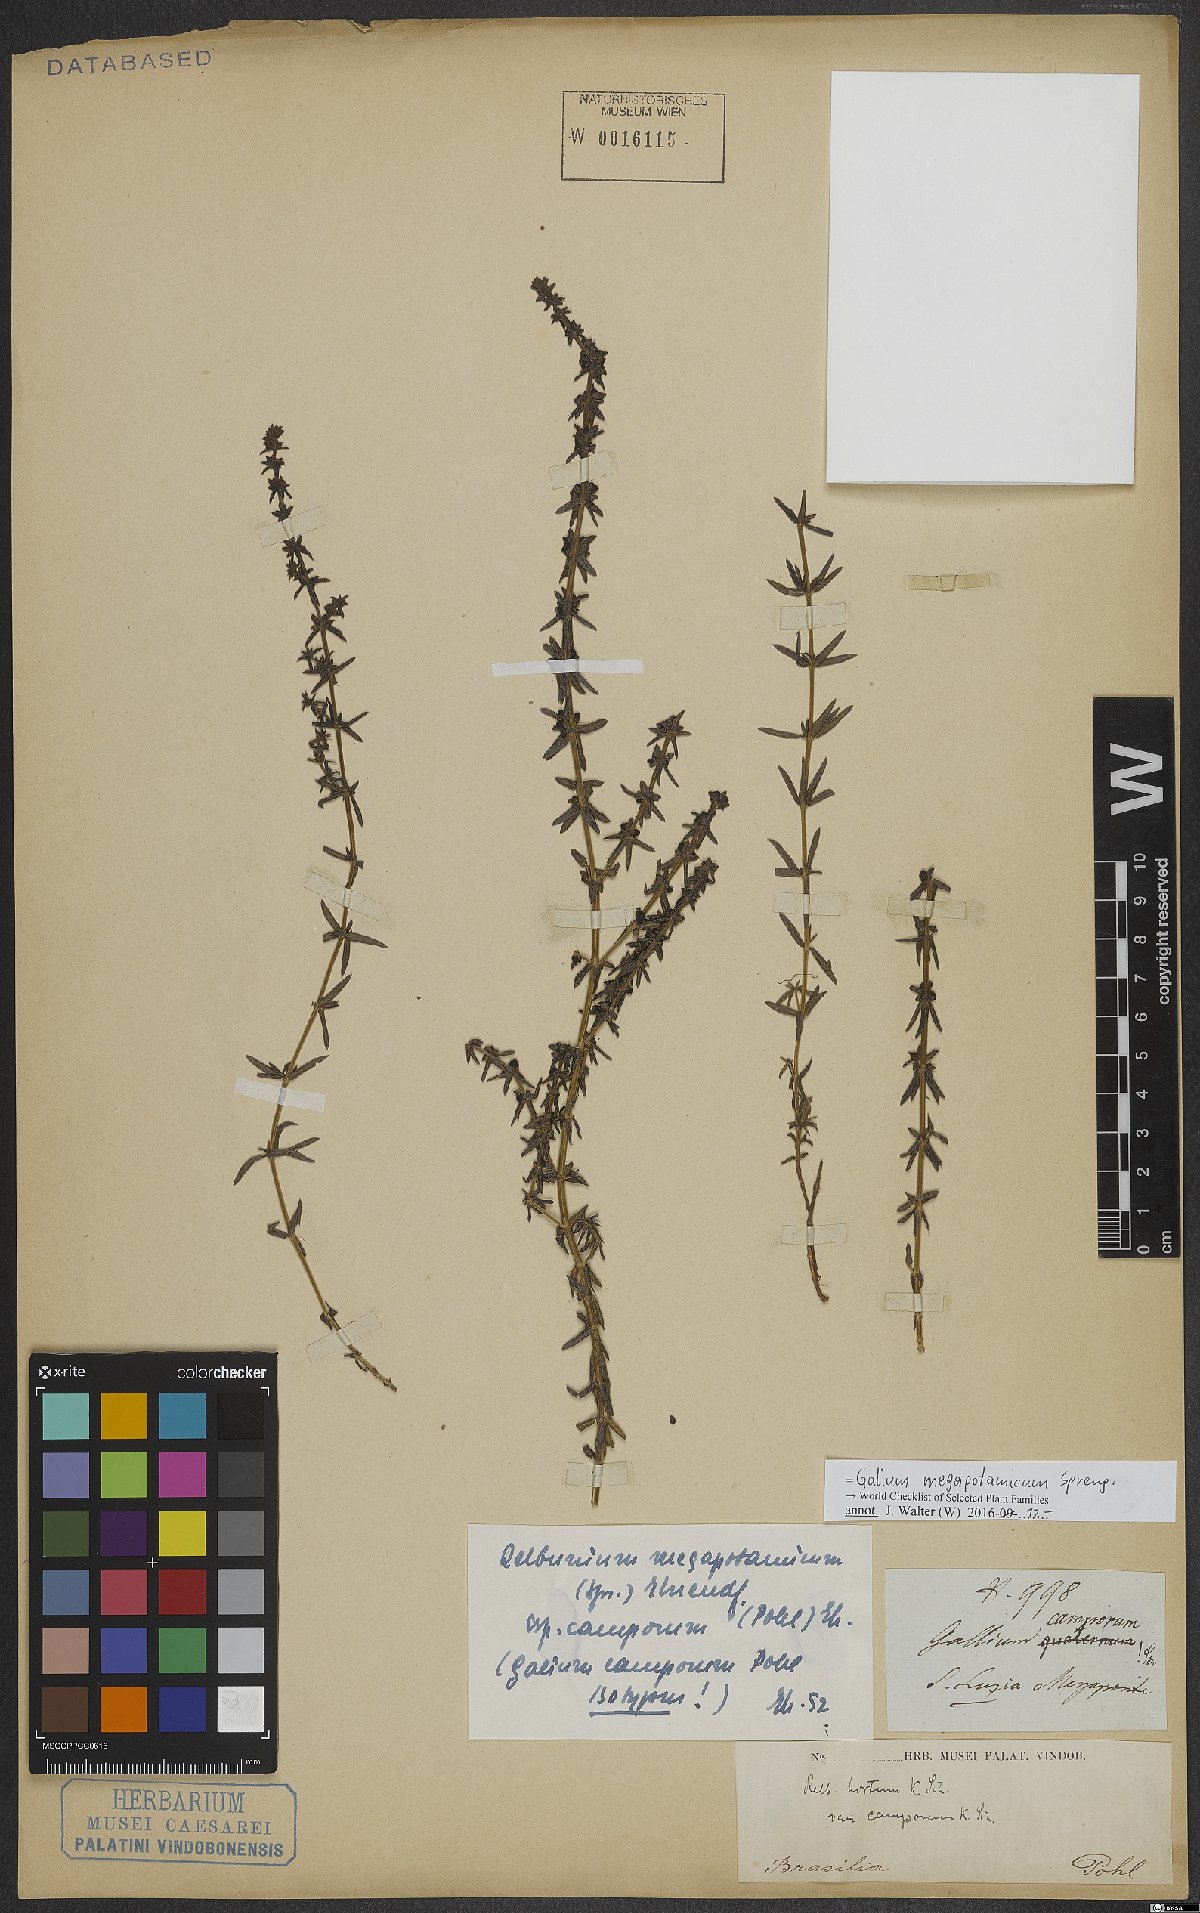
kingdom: Plantae
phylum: Tracheophyta
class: Magnoliopsida
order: Gentianales
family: Rubiaceae
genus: Galium
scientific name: Galium megapotamicum
